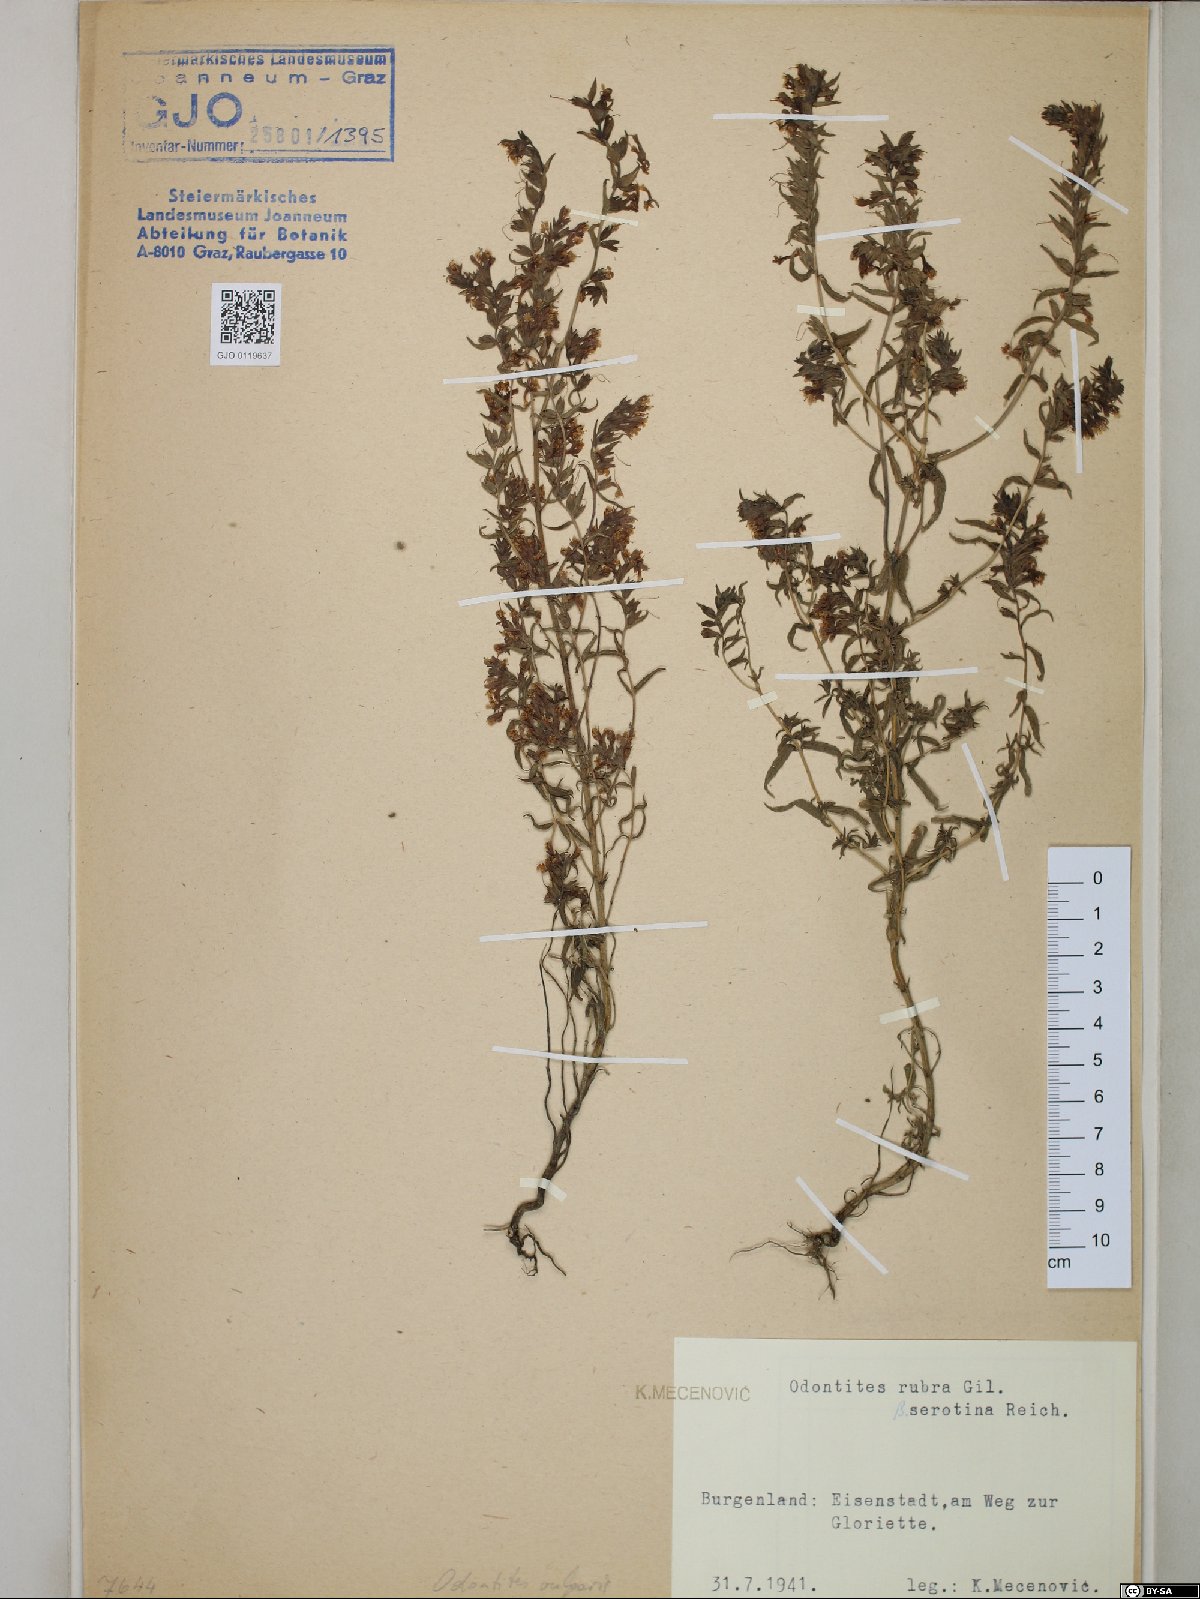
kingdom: Plantae
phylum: Tracheophyta
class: Magnoliopsida
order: Lamiales
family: Orobanchaceae
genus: Odontites
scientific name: Odontites vulgaris
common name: Broomrape
